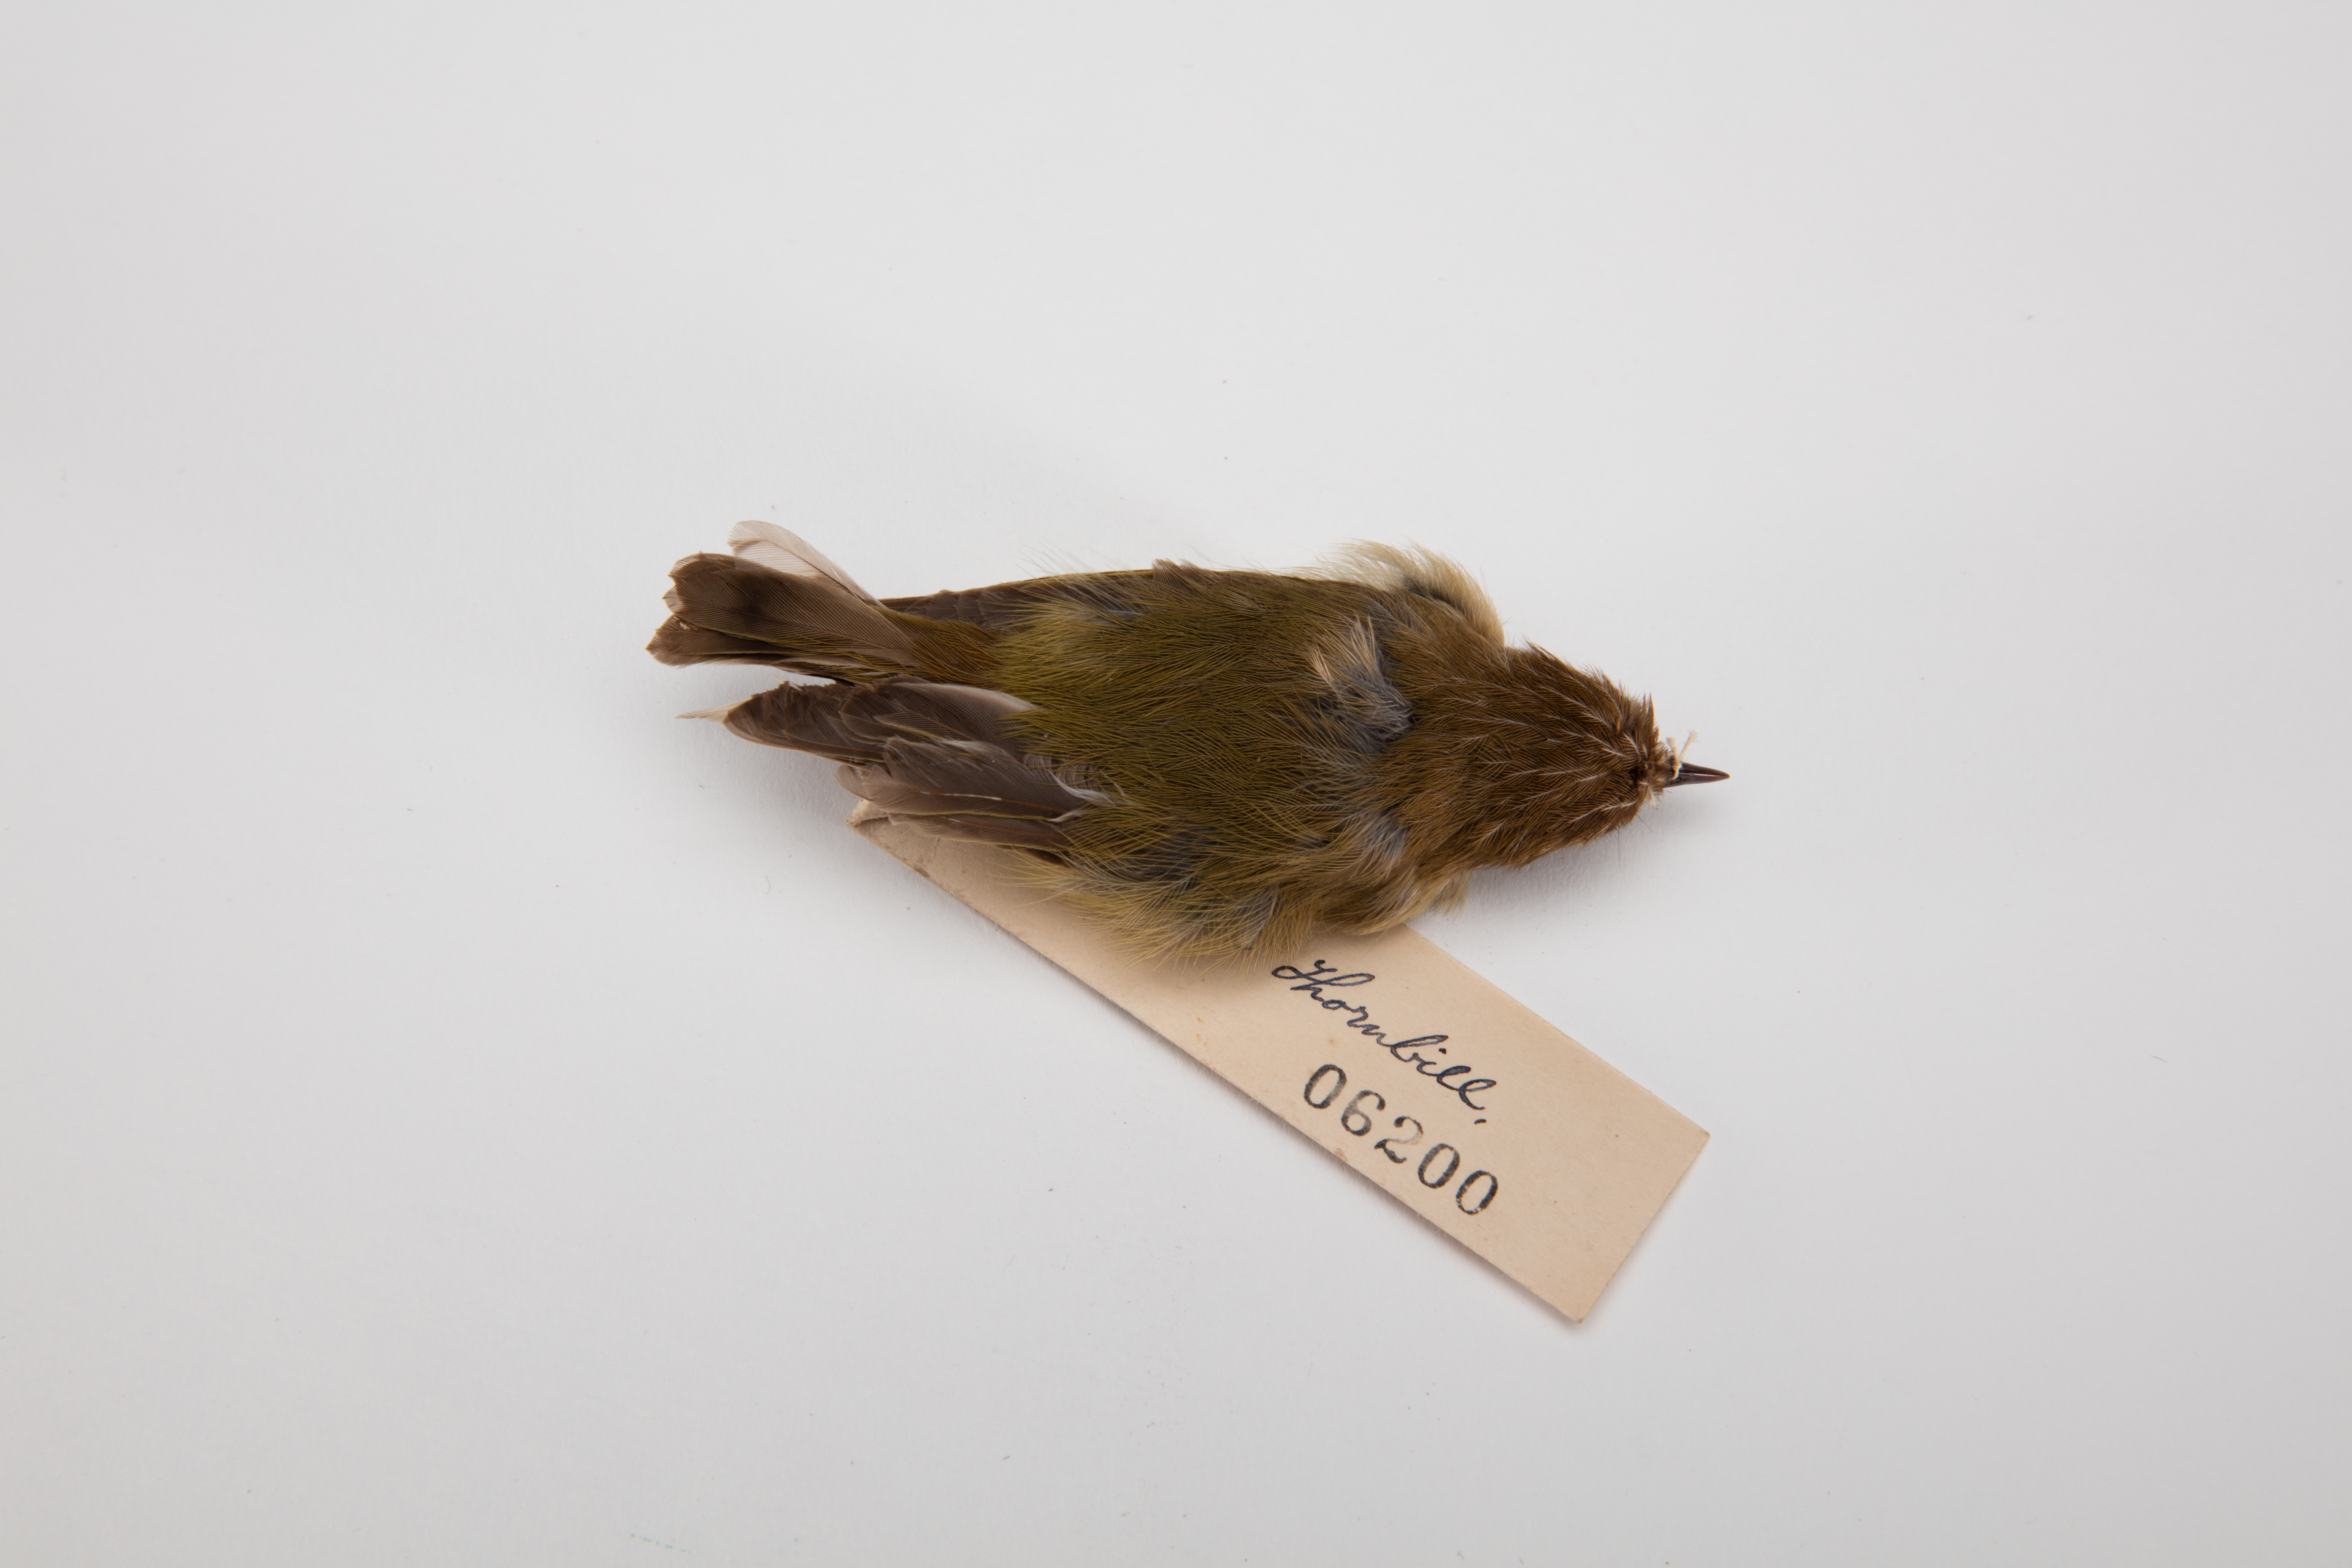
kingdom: Animalia
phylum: Chordata
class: Aves
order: Passeriformes
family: Acanthizidae
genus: Acanthiza
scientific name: Acanthiza lineata
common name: Striated thornbill
